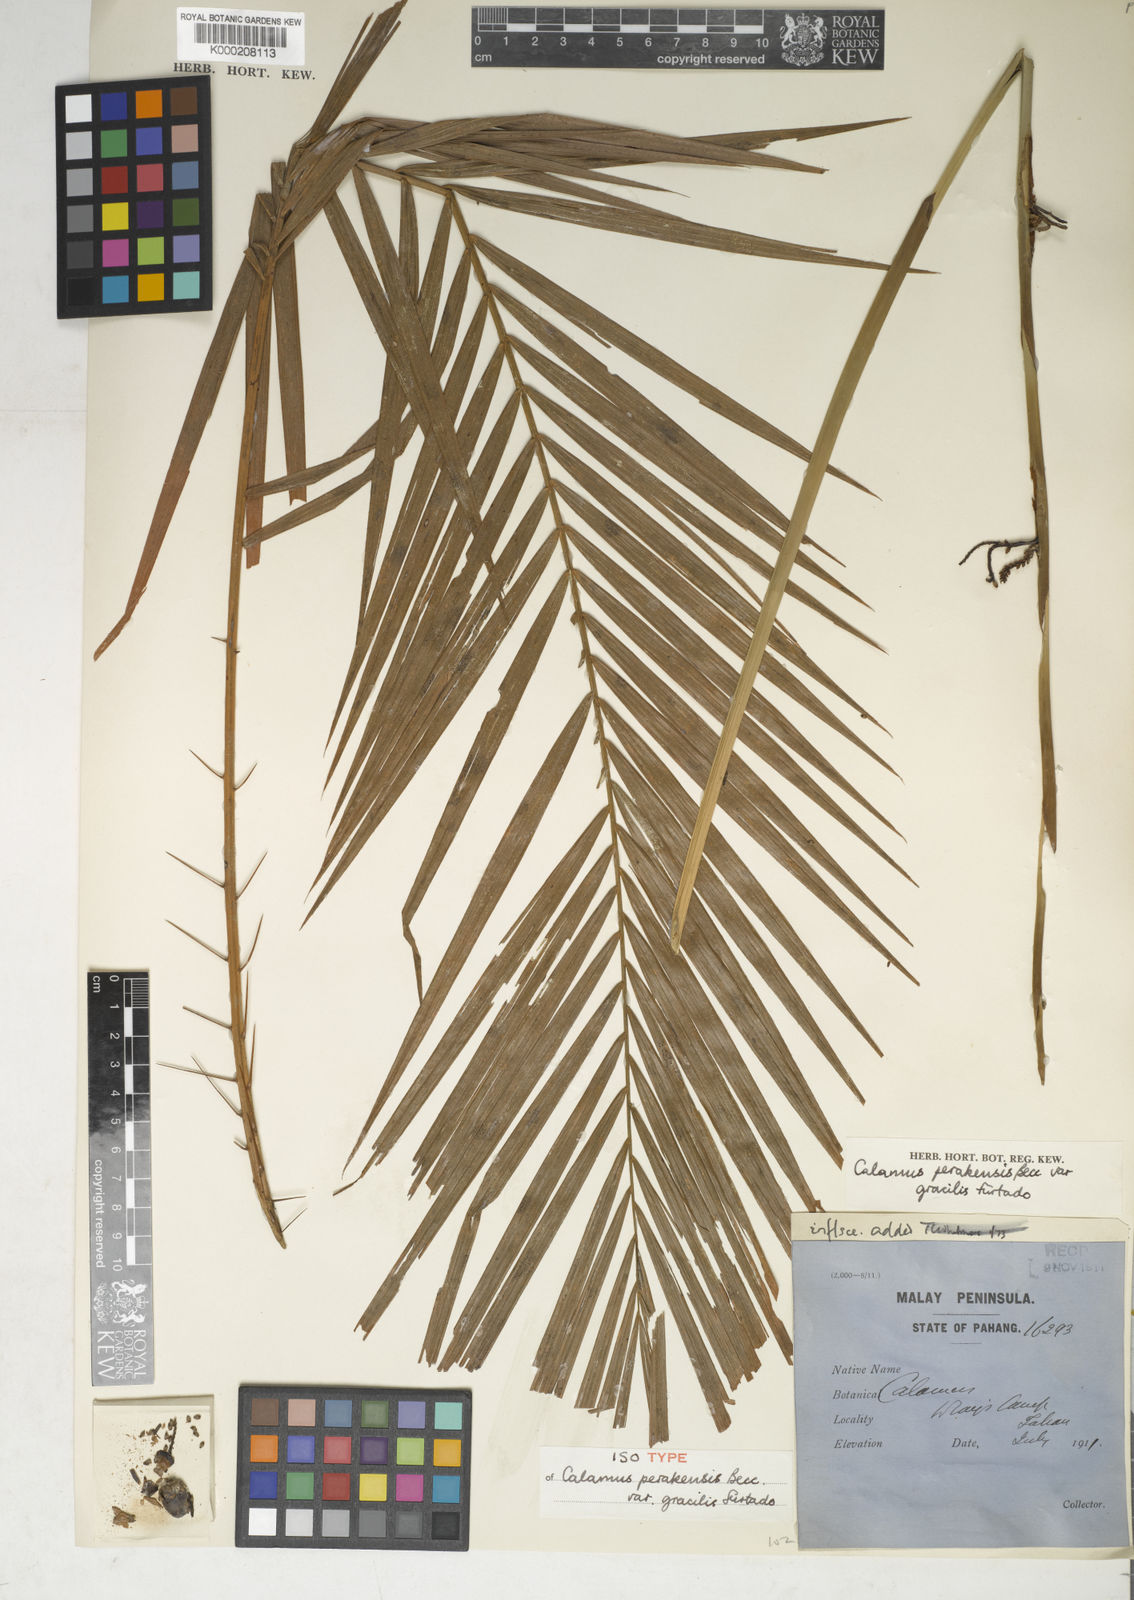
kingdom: Plantae
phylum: Tracheophyta
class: Liliopsida
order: Arecales
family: Arecaceae
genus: Calamus
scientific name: Calamus perakensis
